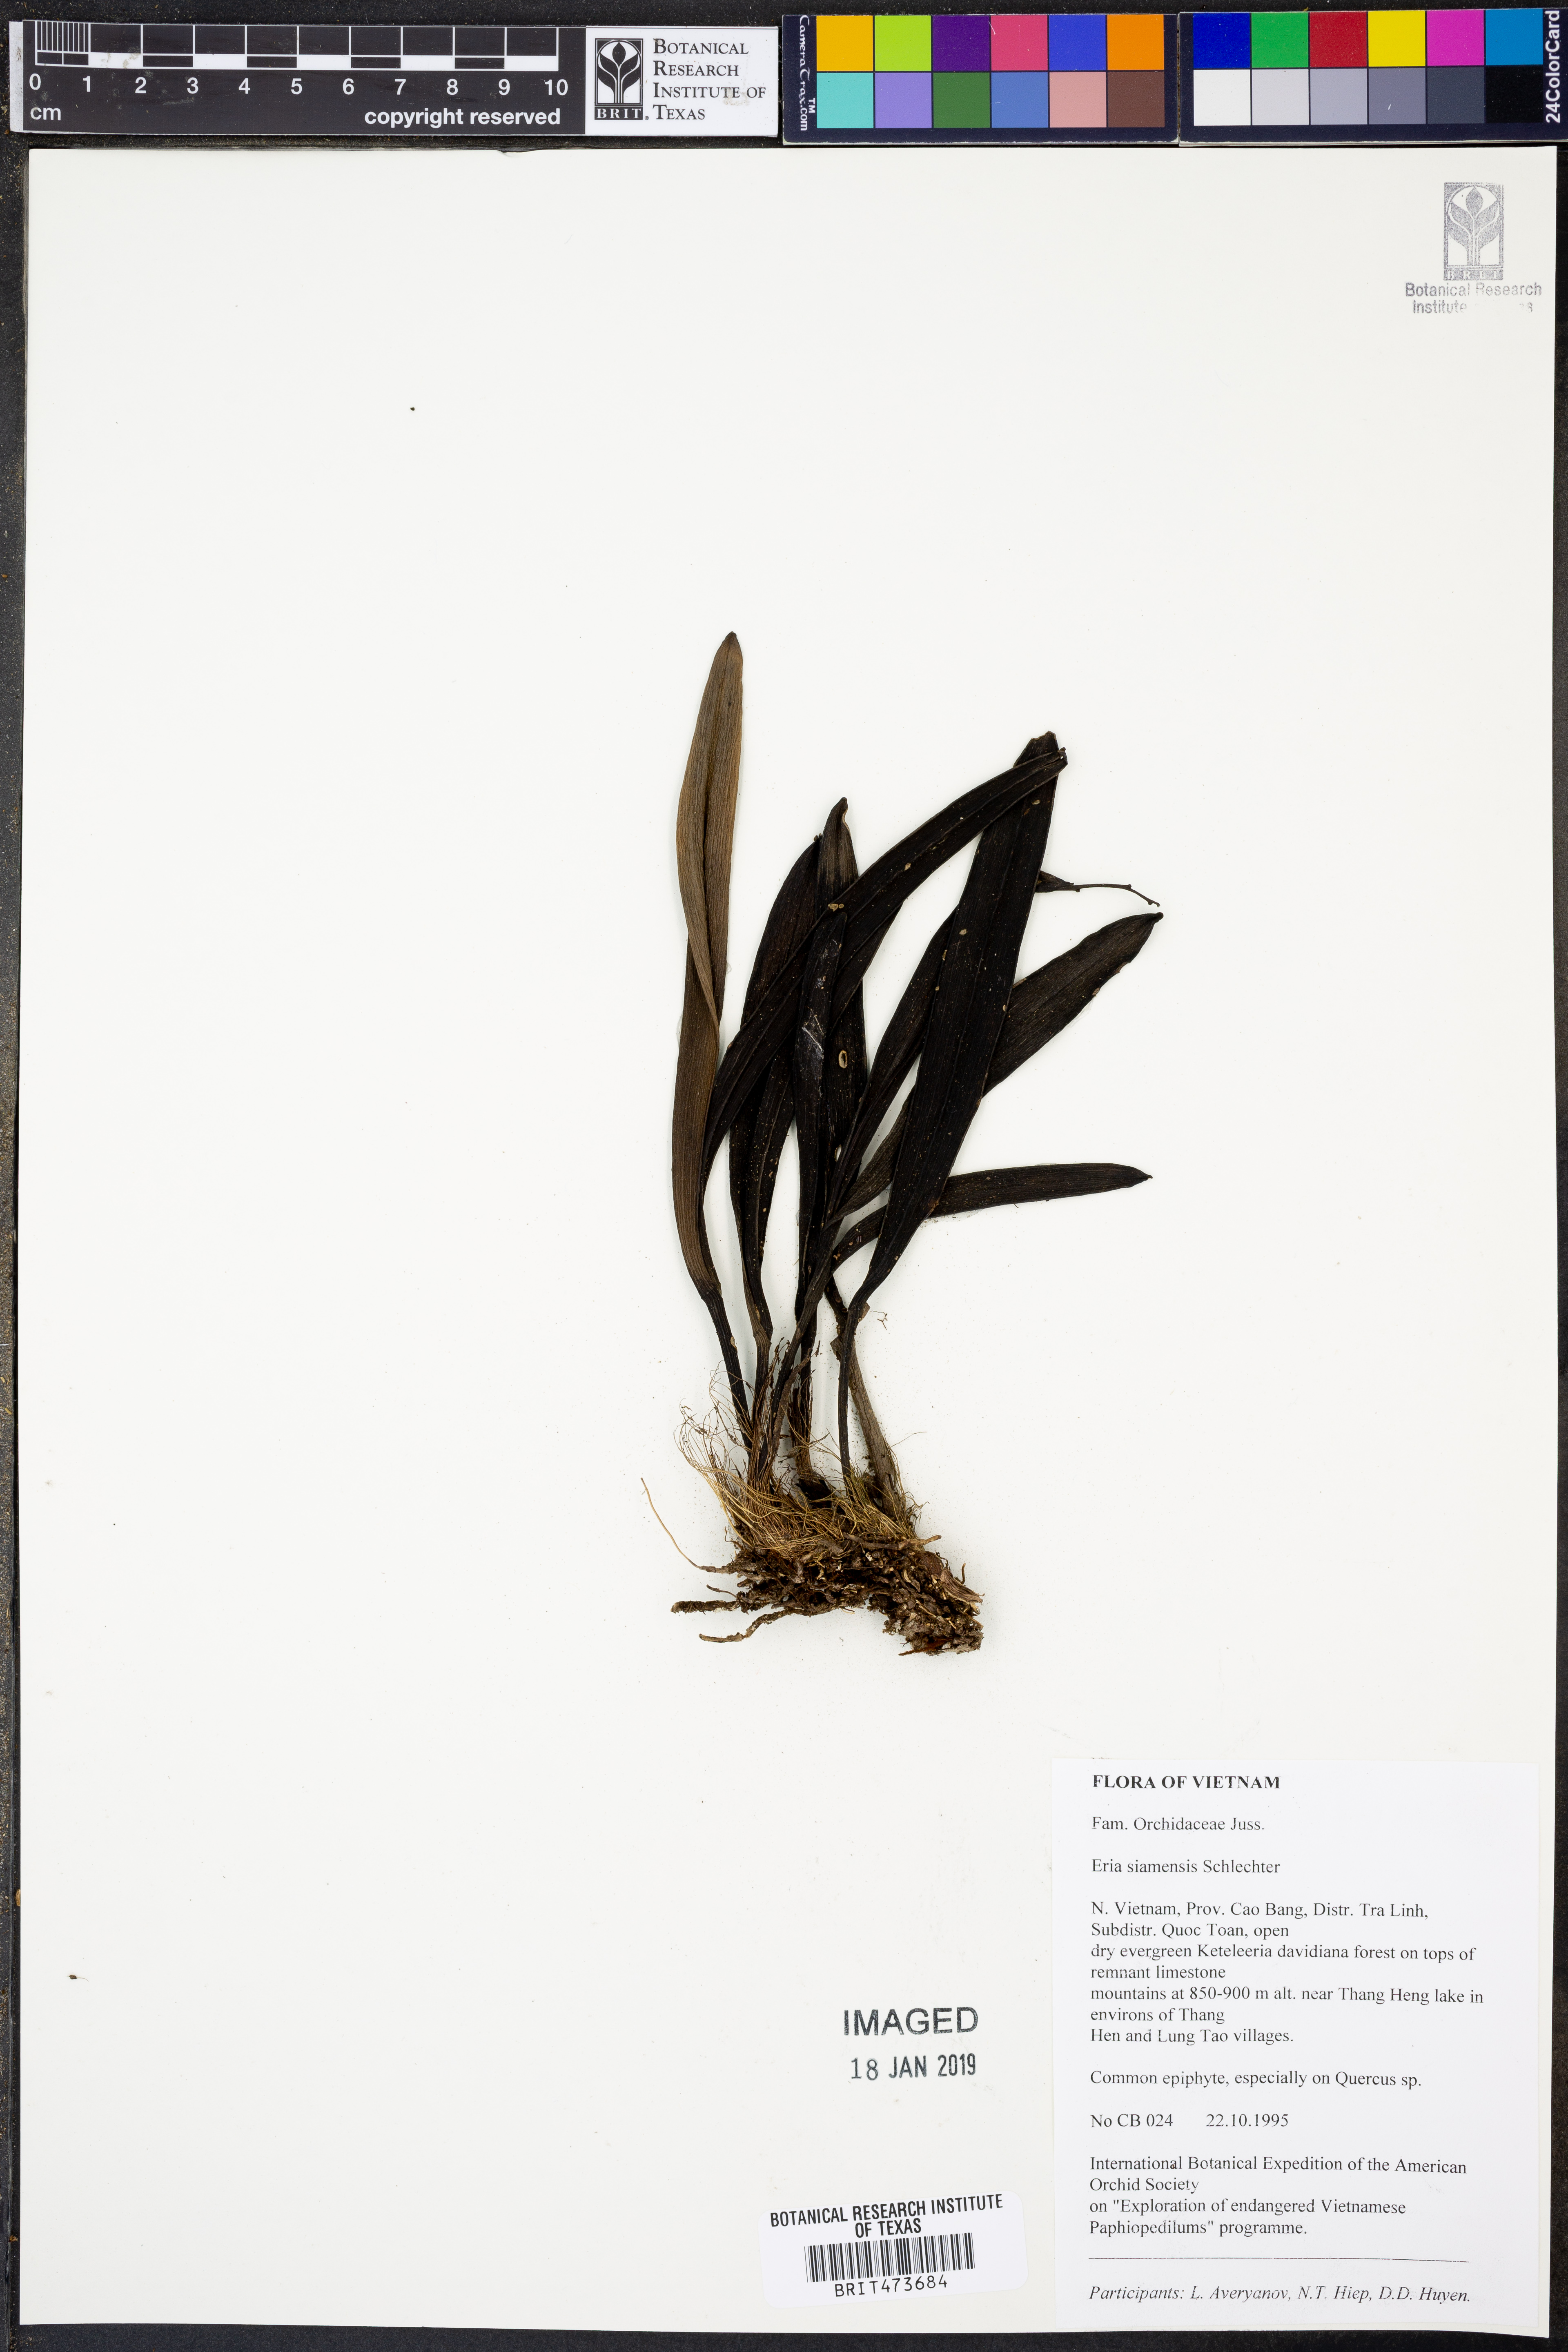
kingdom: Plantae
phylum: Tracheophyta
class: Liliopsida
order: Asparagales
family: Orchidaceae
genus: Cryptochilus
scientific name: Cryptochilus siamensis
